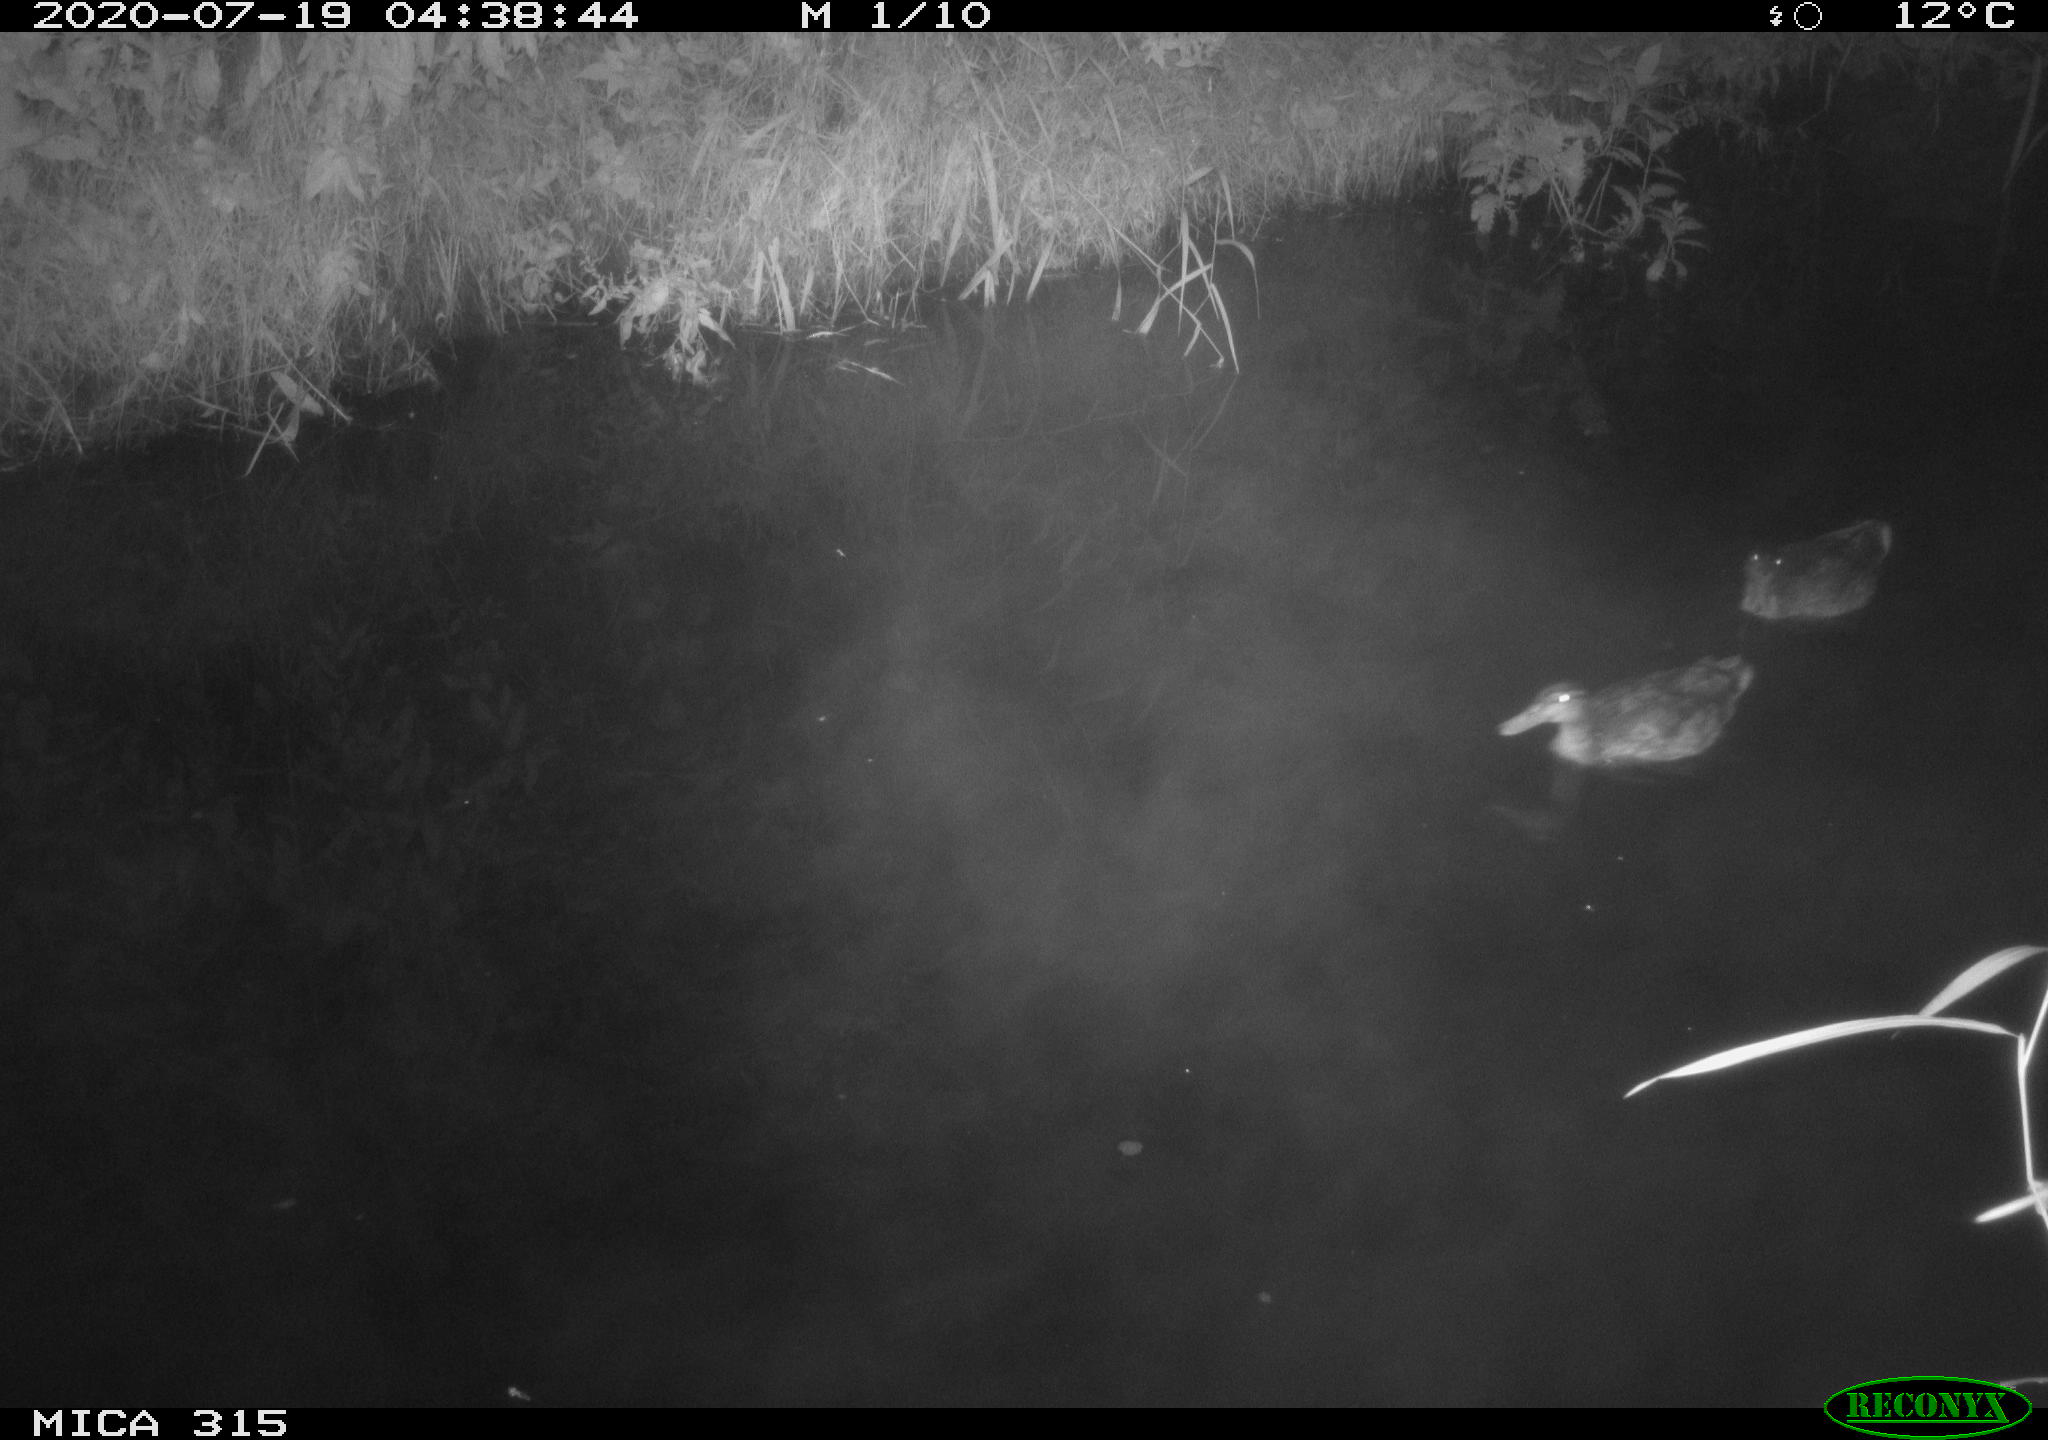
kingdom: Animalia
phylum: Chordata
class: Aves
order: Anseriformes
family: Anatidae
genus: Anas
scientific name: Anas platyrhynchos
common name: Mallard
